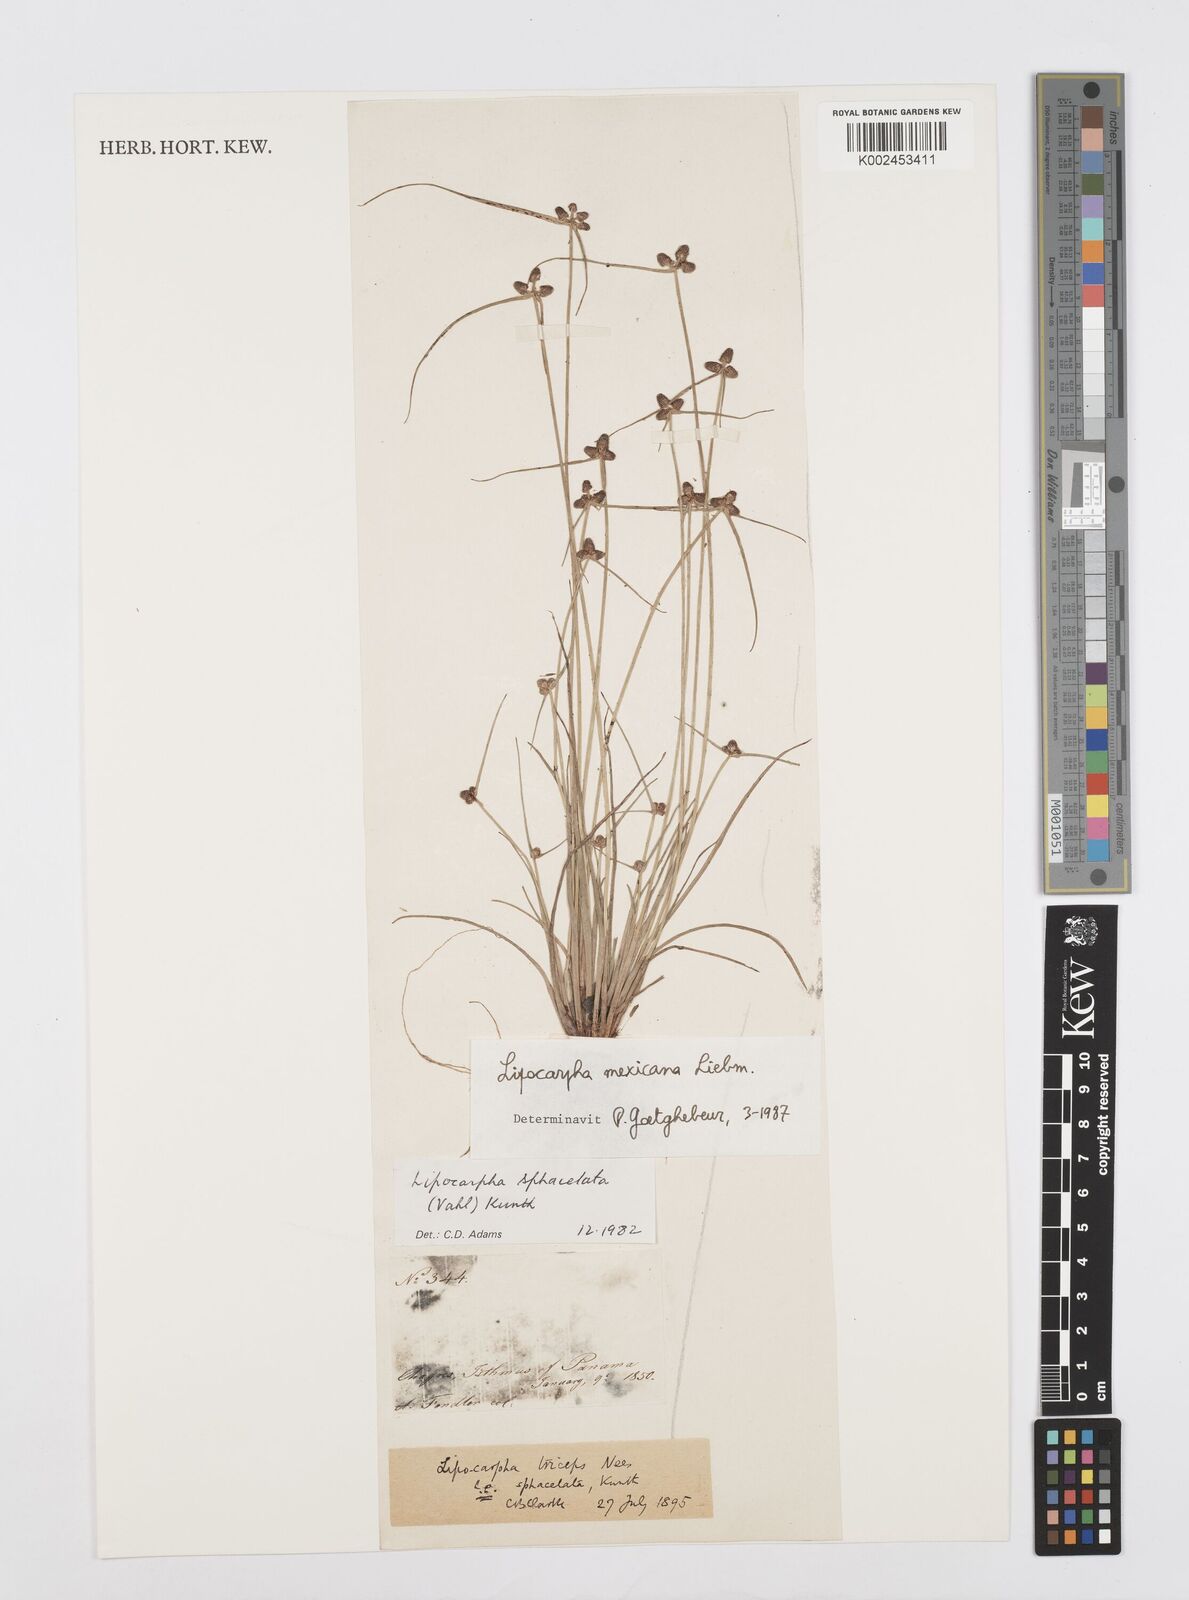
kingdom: Plantae
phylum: Tracheophyta
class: Liliopsida
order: Poales
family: Cyperaceae
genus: Cyperus
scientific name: Cyperus digitatus
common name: Finger flatsedge
